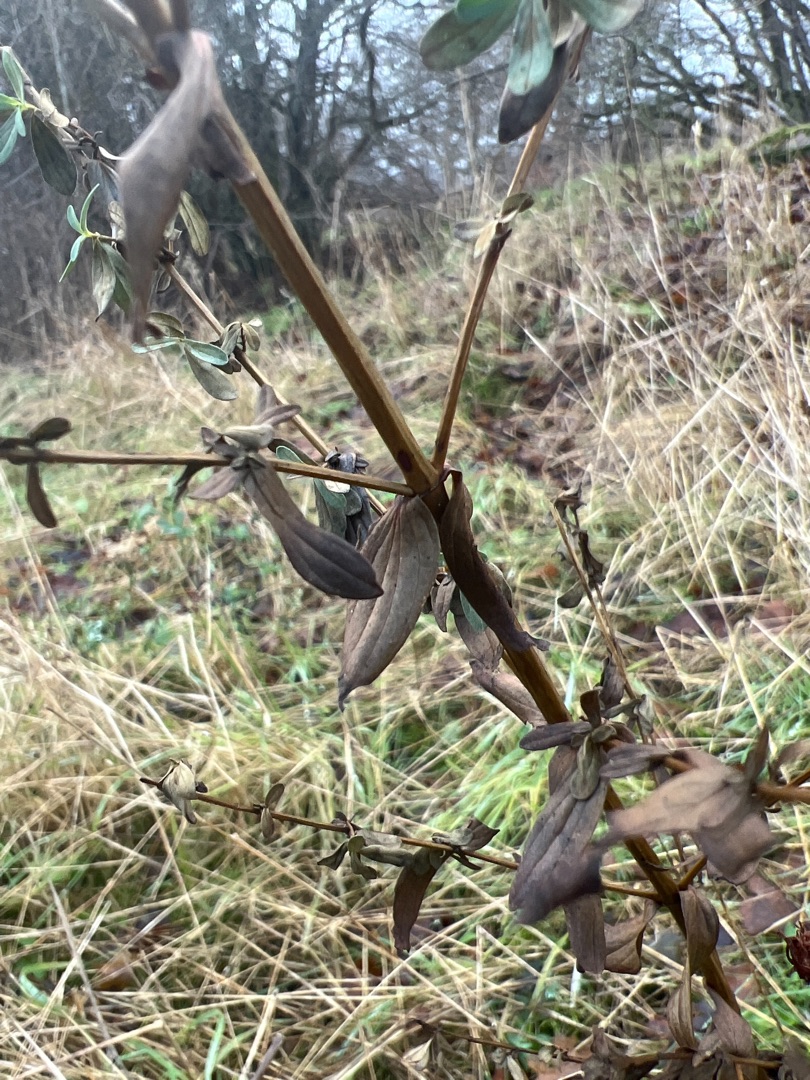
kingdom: Plantae
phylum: Tracheophyta
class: Magnoliopsida
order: Malpighiales
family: Hypericaceae
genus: Hypericum
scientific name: Hypericum perforatum
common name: Prikbladet perikon
